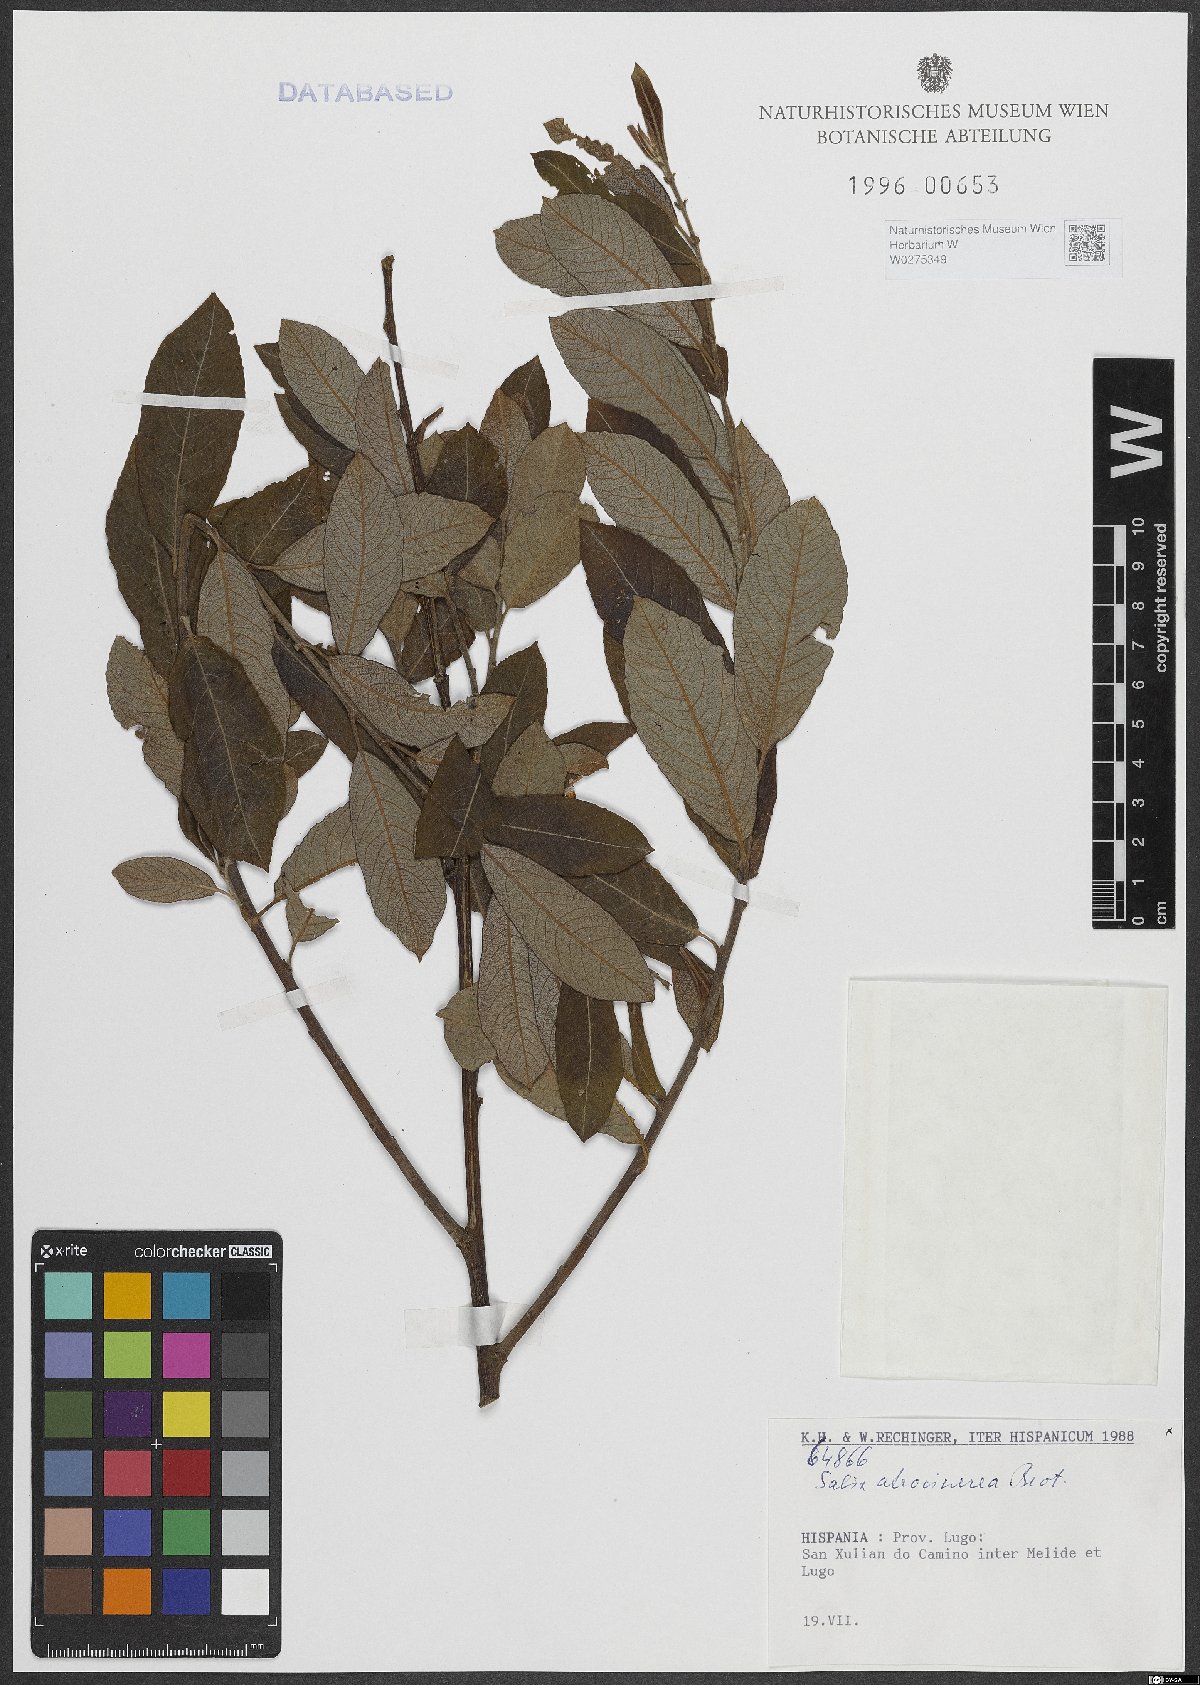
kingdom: Plantae
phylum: Tracheophyta
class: Magnoliopsida
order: Malpighiales
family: Salicaceae
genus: Salix
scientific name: Salix atrocinerea
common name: Rusty willow
